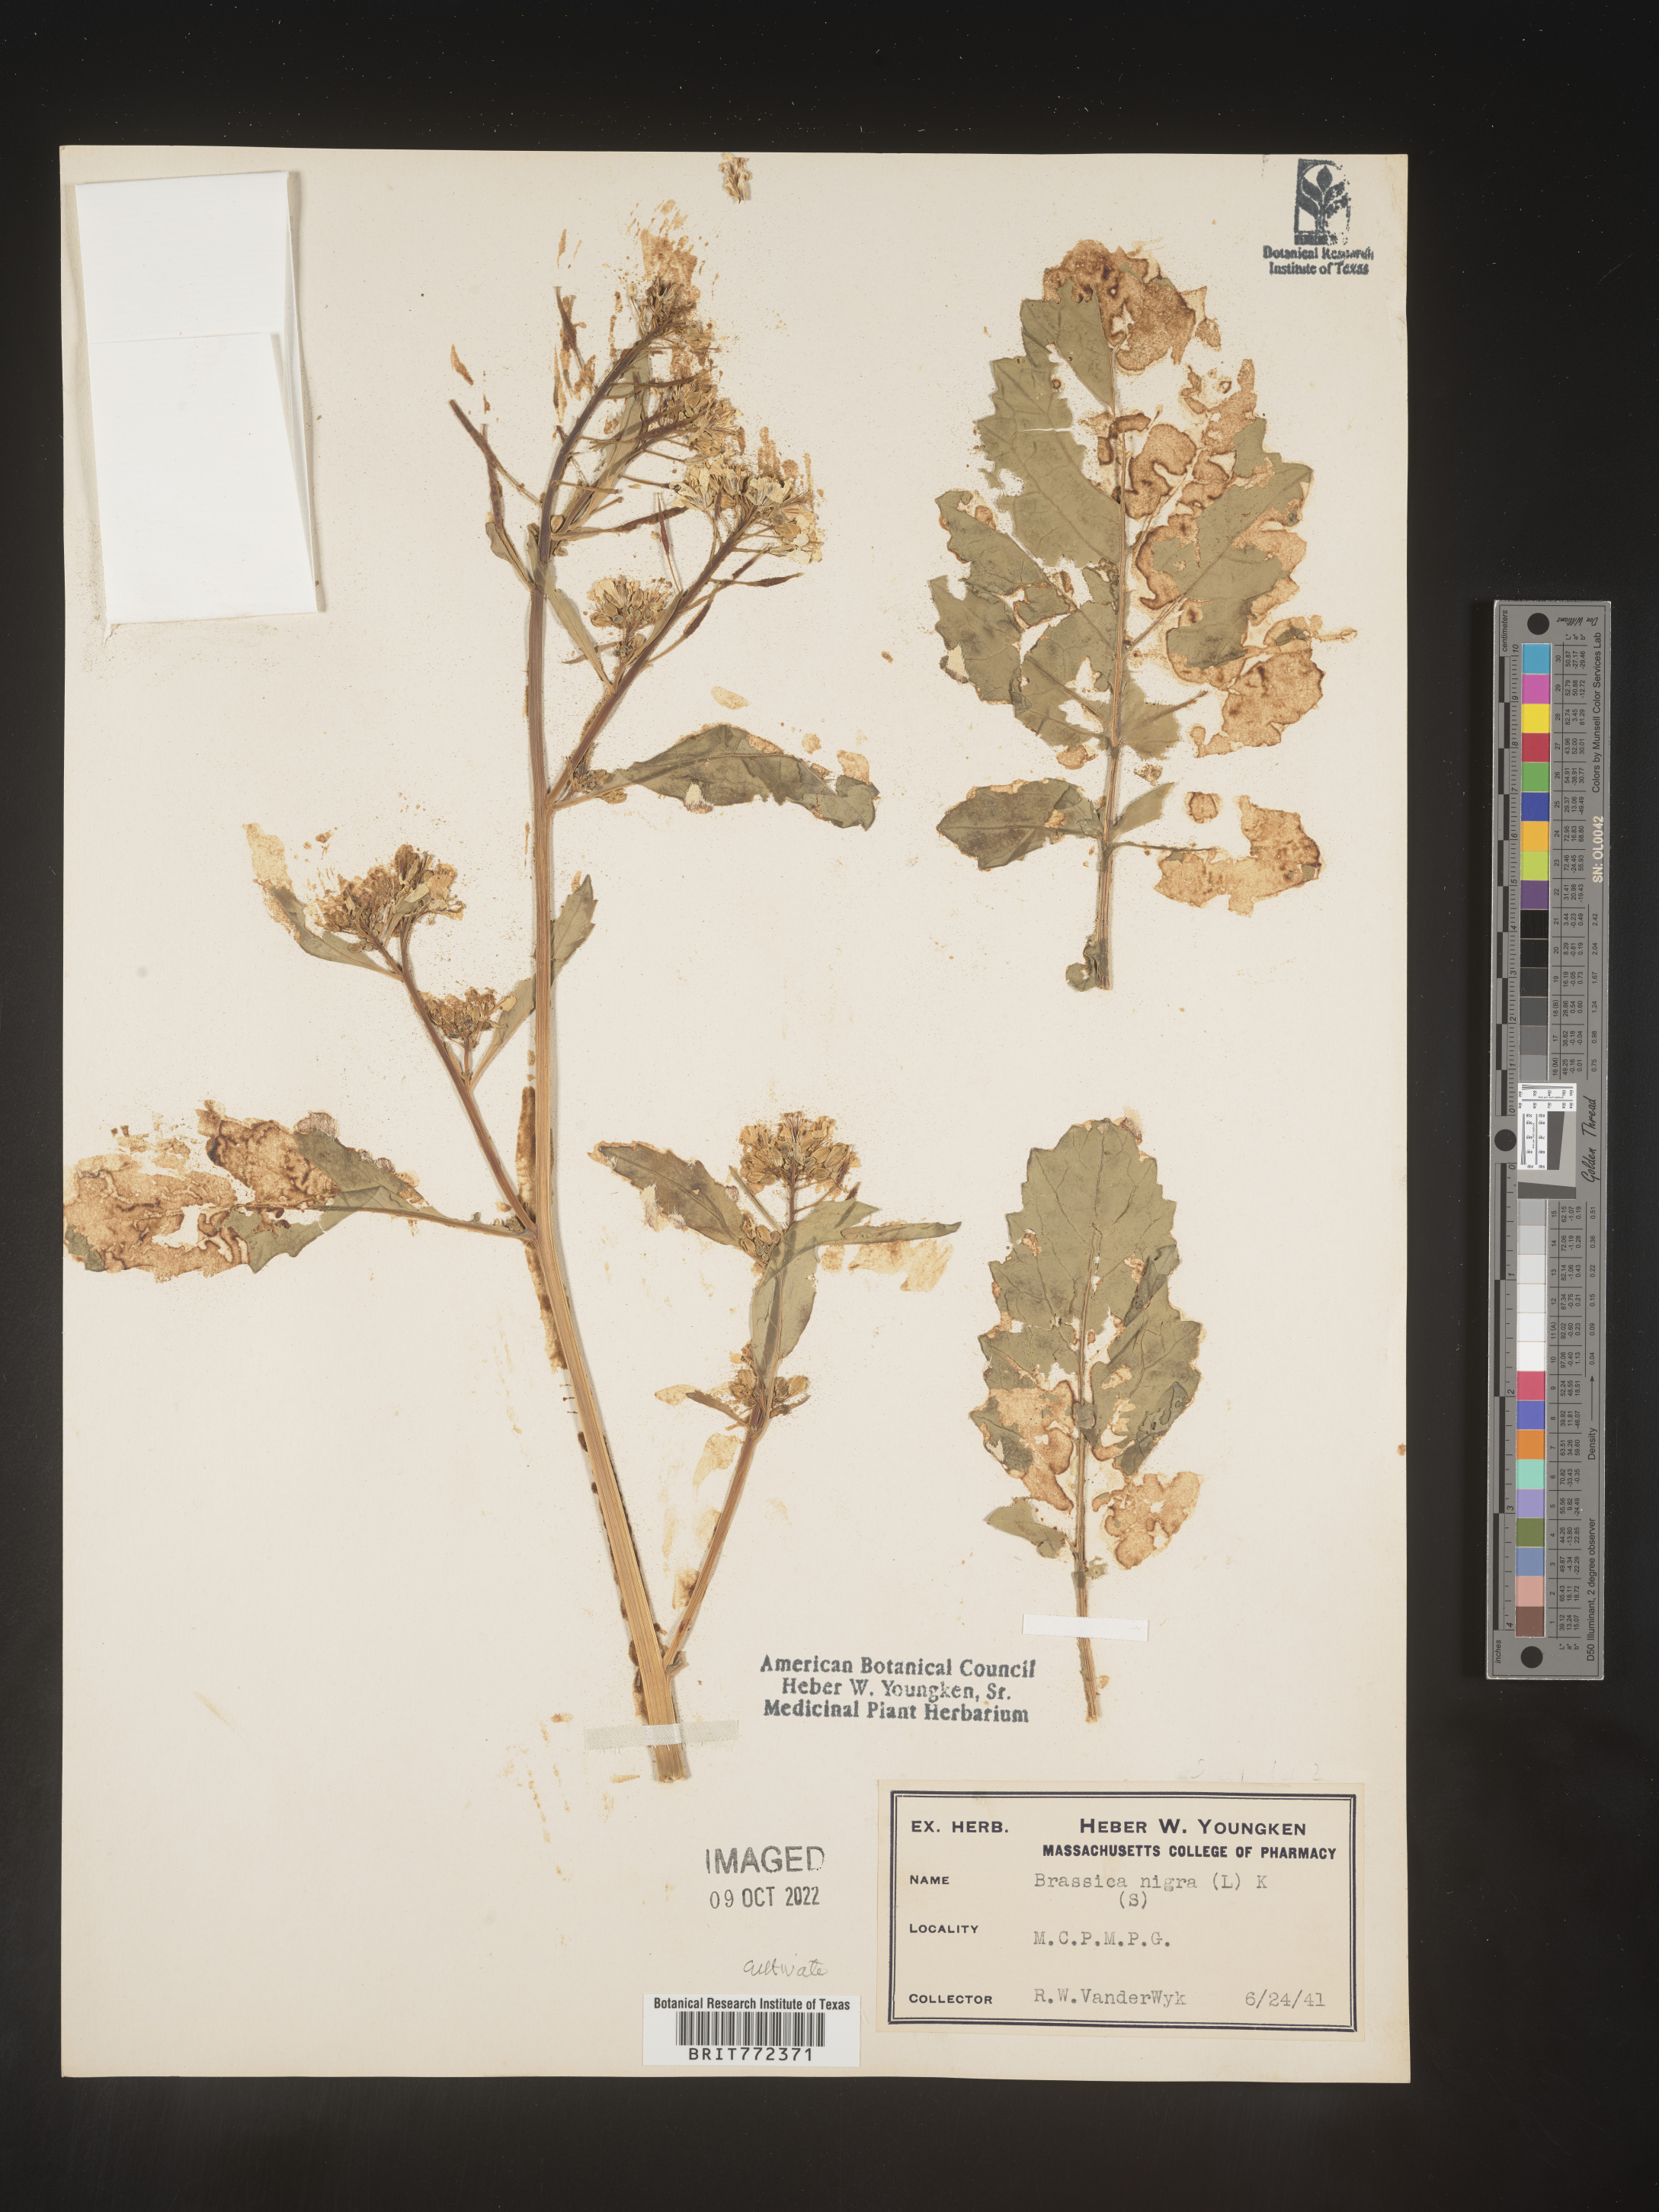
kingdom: Plantae
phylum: Tracheophyta
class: Magnoliopsida
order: Brassicales
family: Brassicaceae
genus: Brassica
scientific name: Brassica
